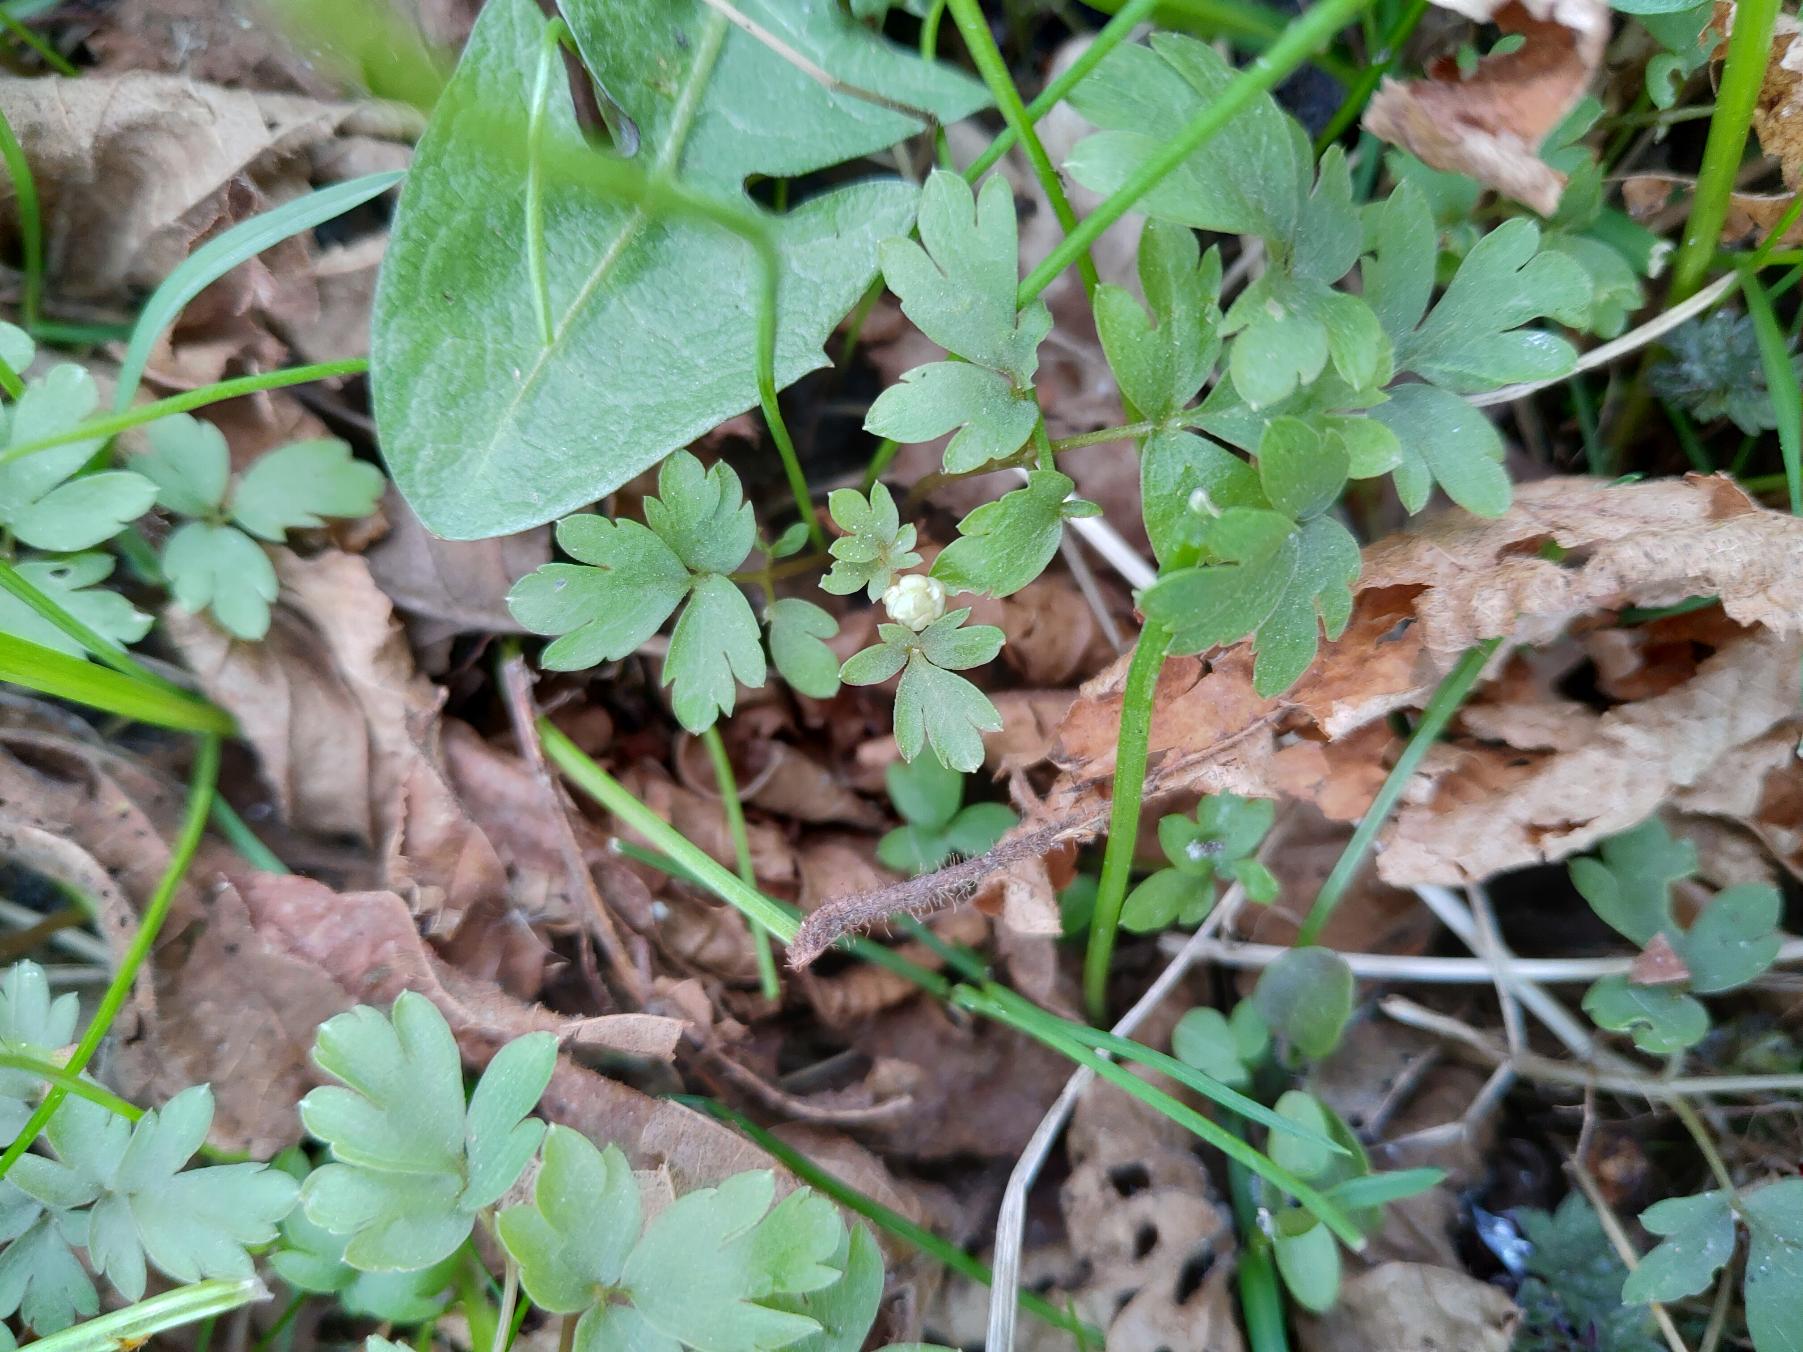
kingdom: Plantae
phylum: Tracheophyta
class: Magnoliopsida
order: Dipsacales
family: Viburnaceae
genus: Adoxa
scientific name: Adoxa moschatellina
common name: Desmerurt
